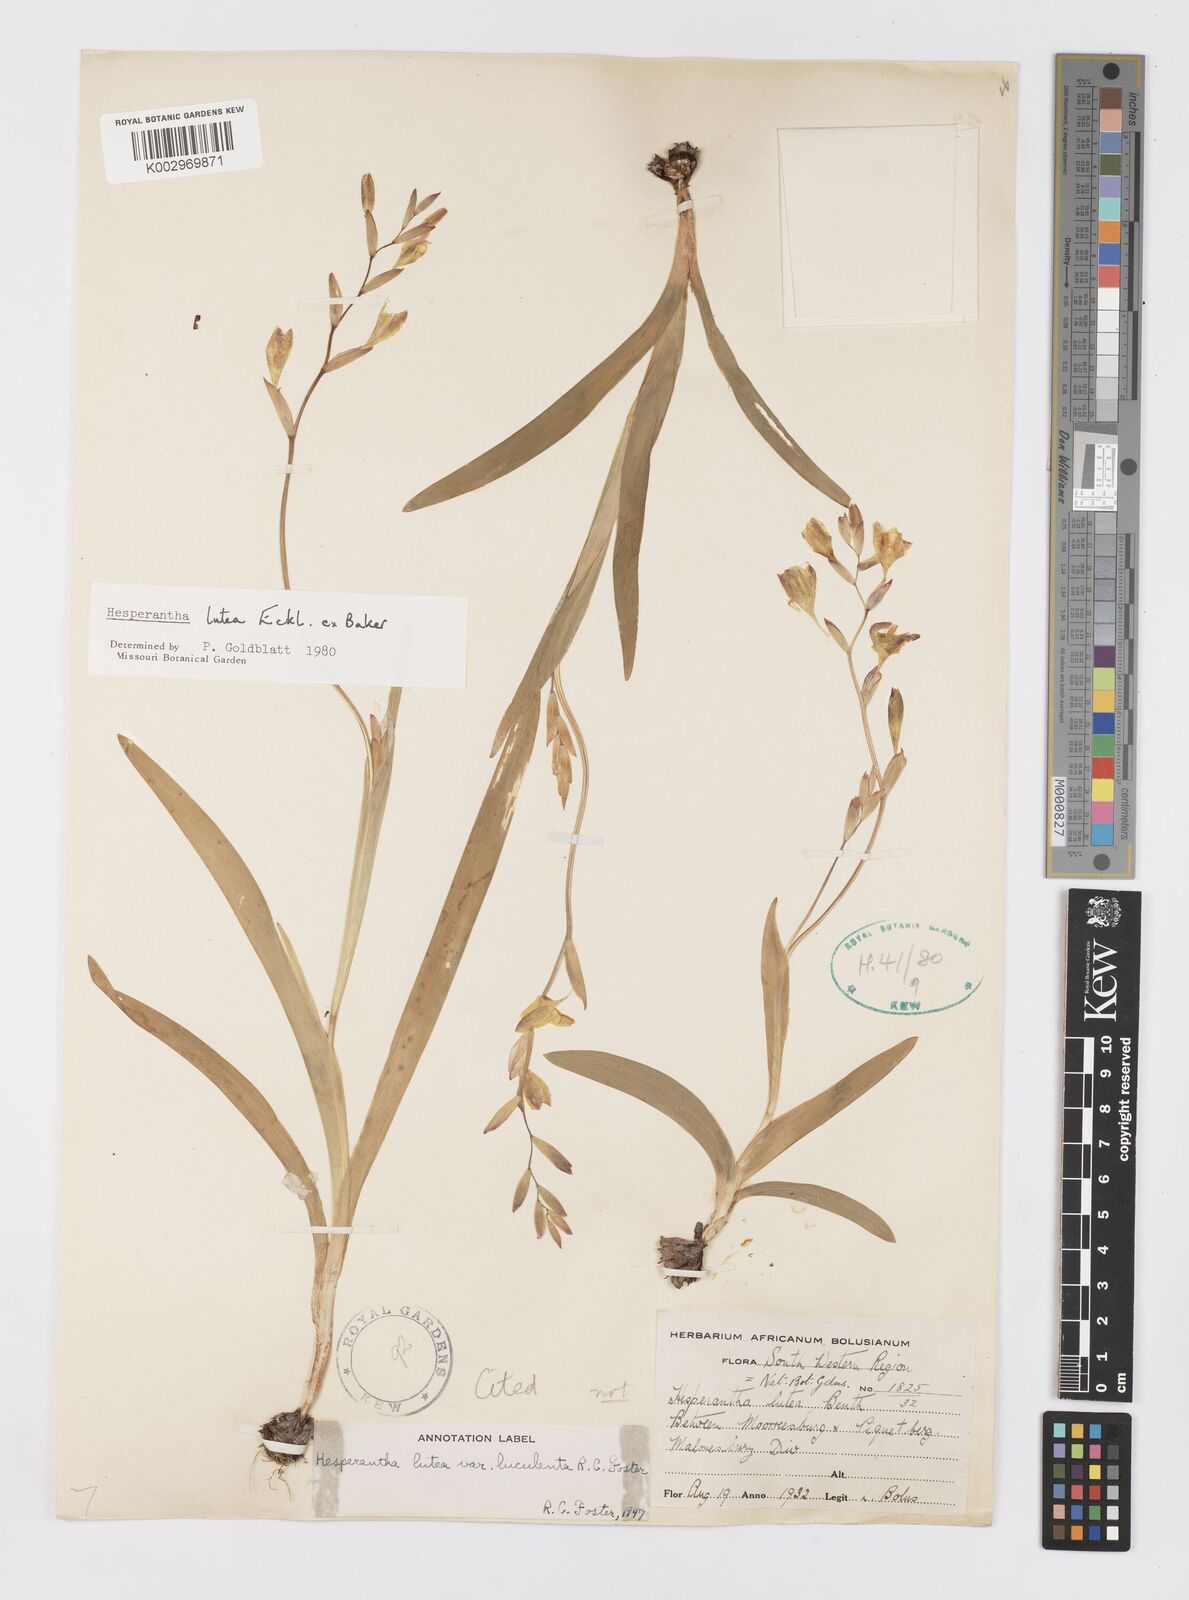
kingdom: Plantae
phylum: Tracheophyta
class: Liliopsida
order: Asparagales
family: Iridaceae
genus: Hesperantha
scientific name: Hesperantha falcata
